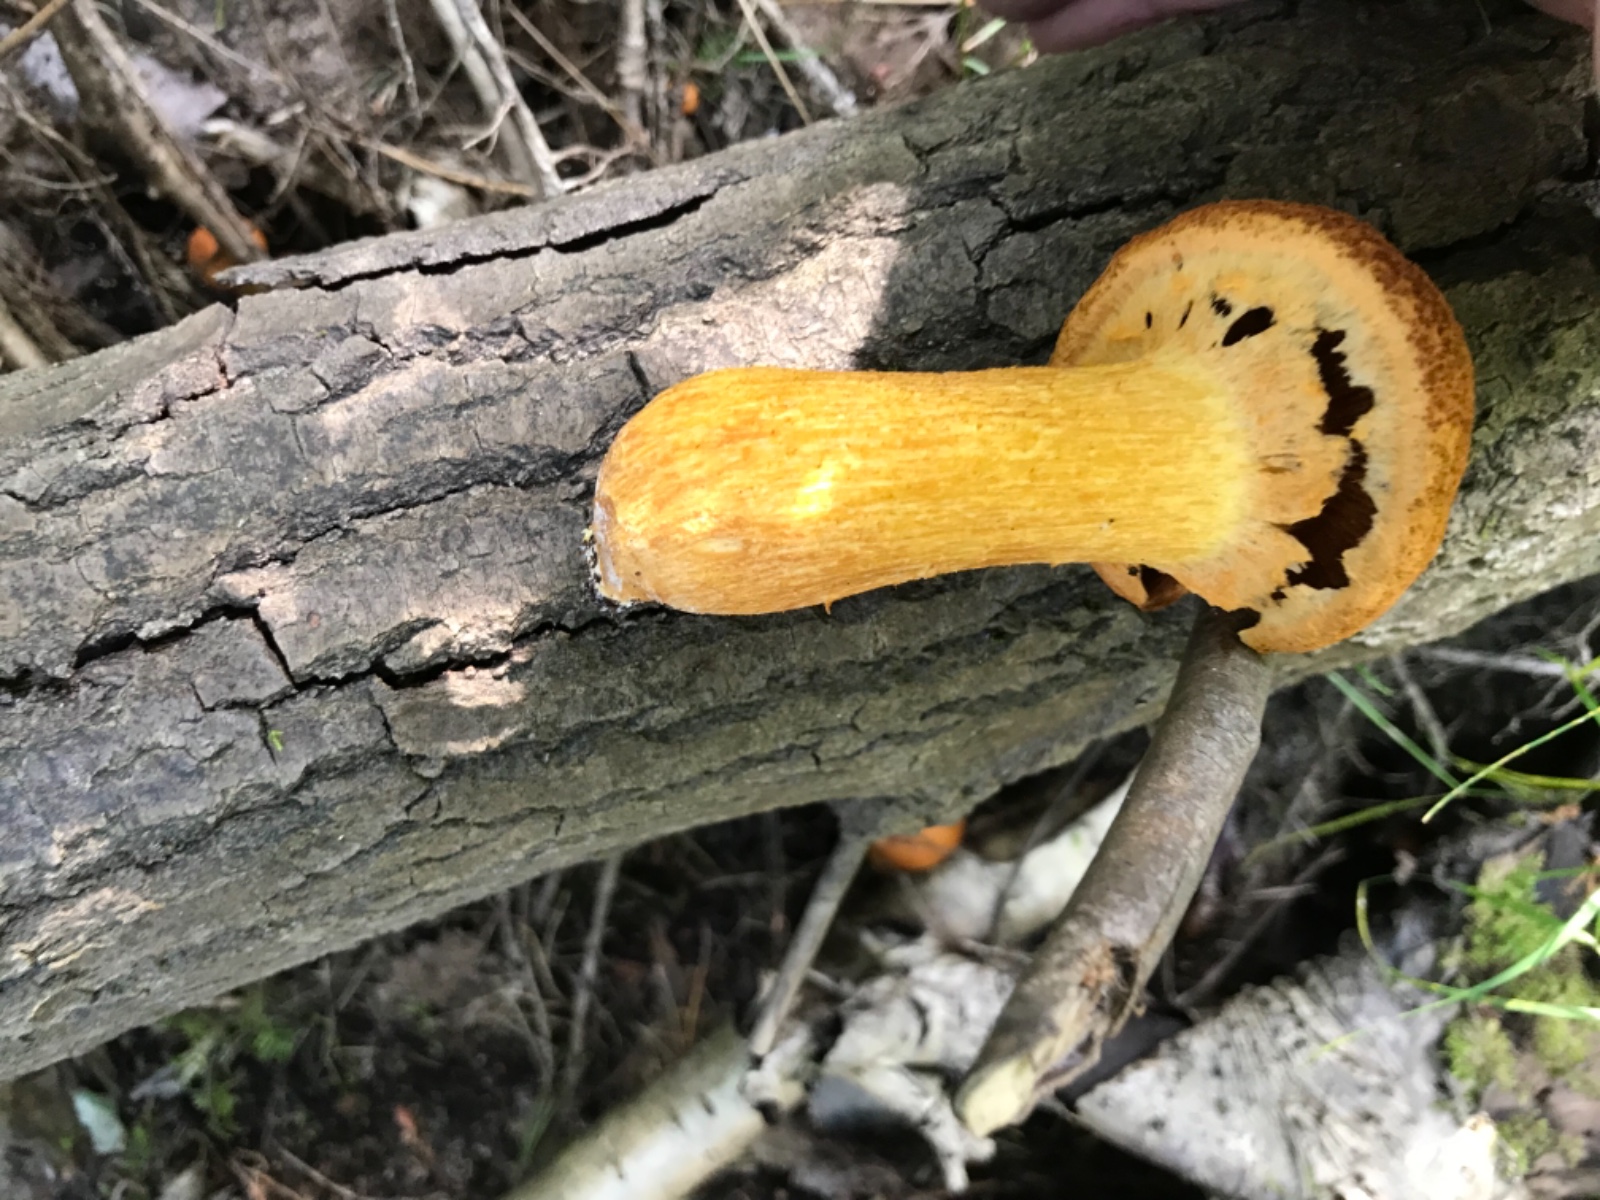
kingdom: Fungi
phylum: Basidiomycota
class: Agaricomycetes
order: Agaricales
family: Hymenogastraceae
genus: Gymnopilus
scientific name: Gymnopilus spectabilis
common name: fibret flammehat
